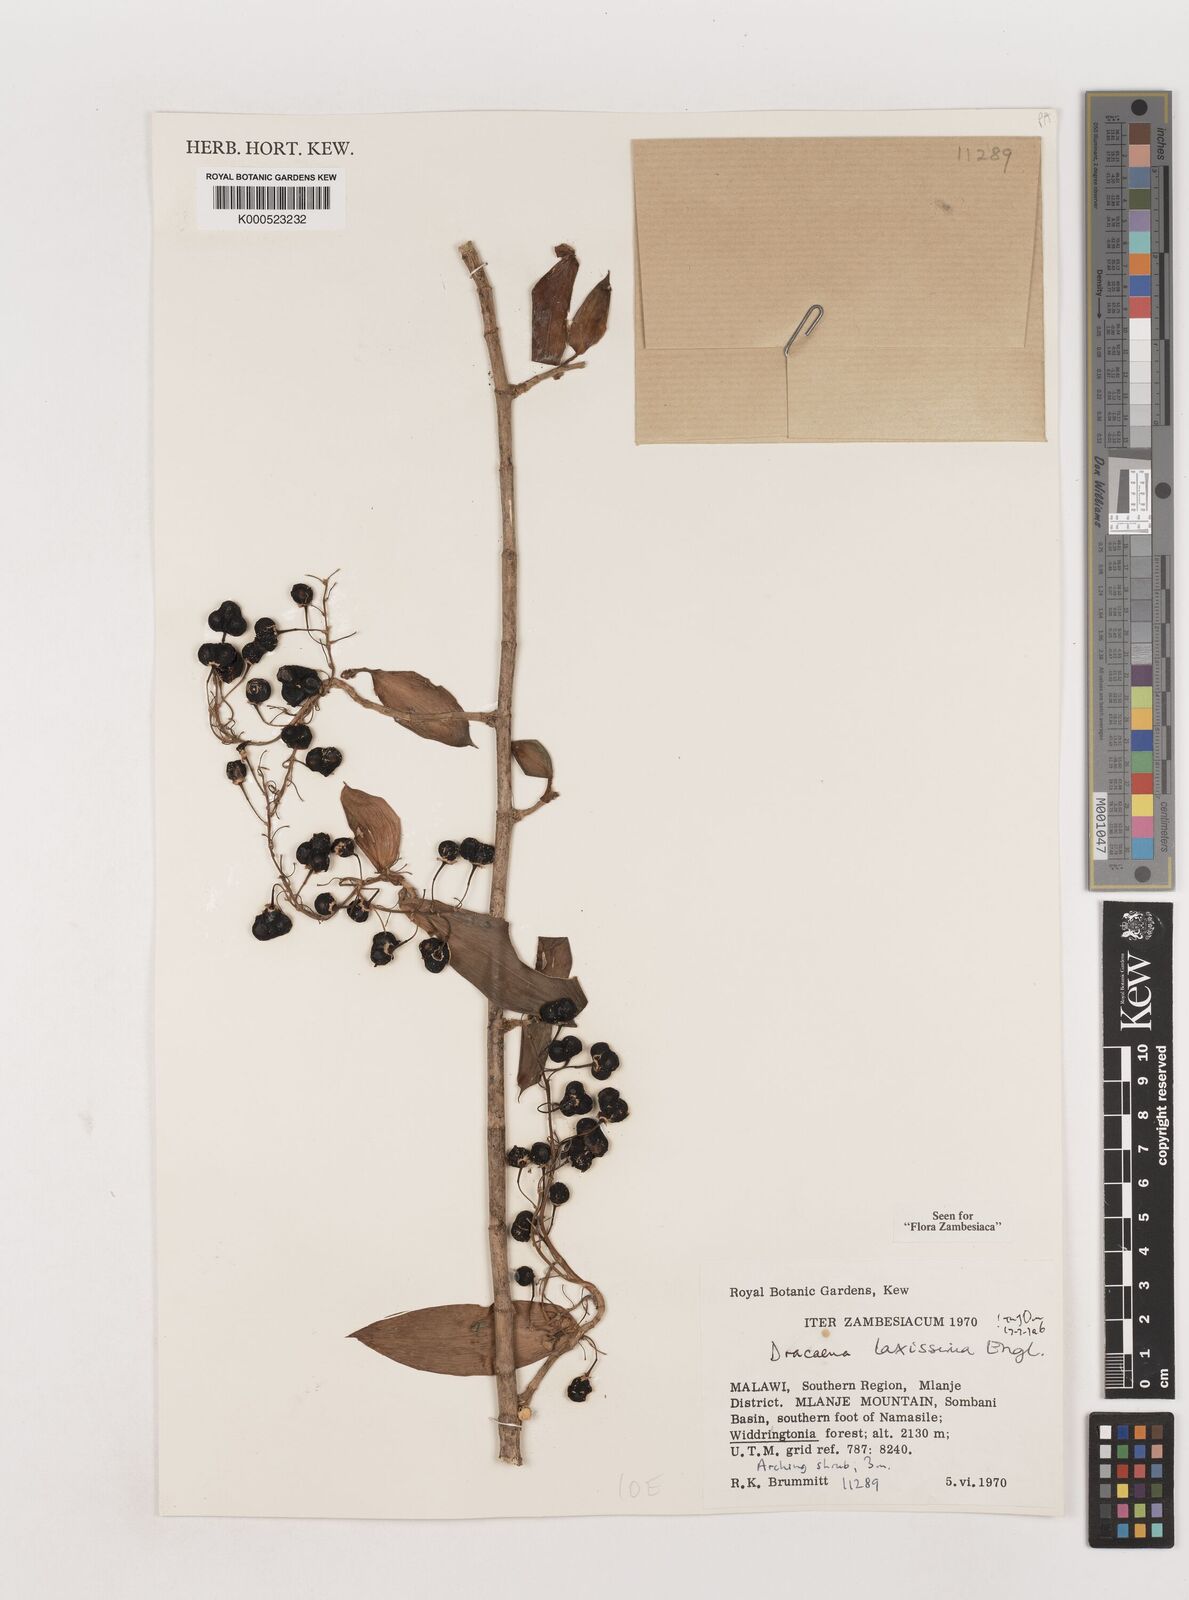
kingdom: Plantae
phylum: Tracheophyta
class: Liliopsida
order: Asparagales
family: Asparagaceae
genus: Dracaena
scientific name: Dracaena laxissima
